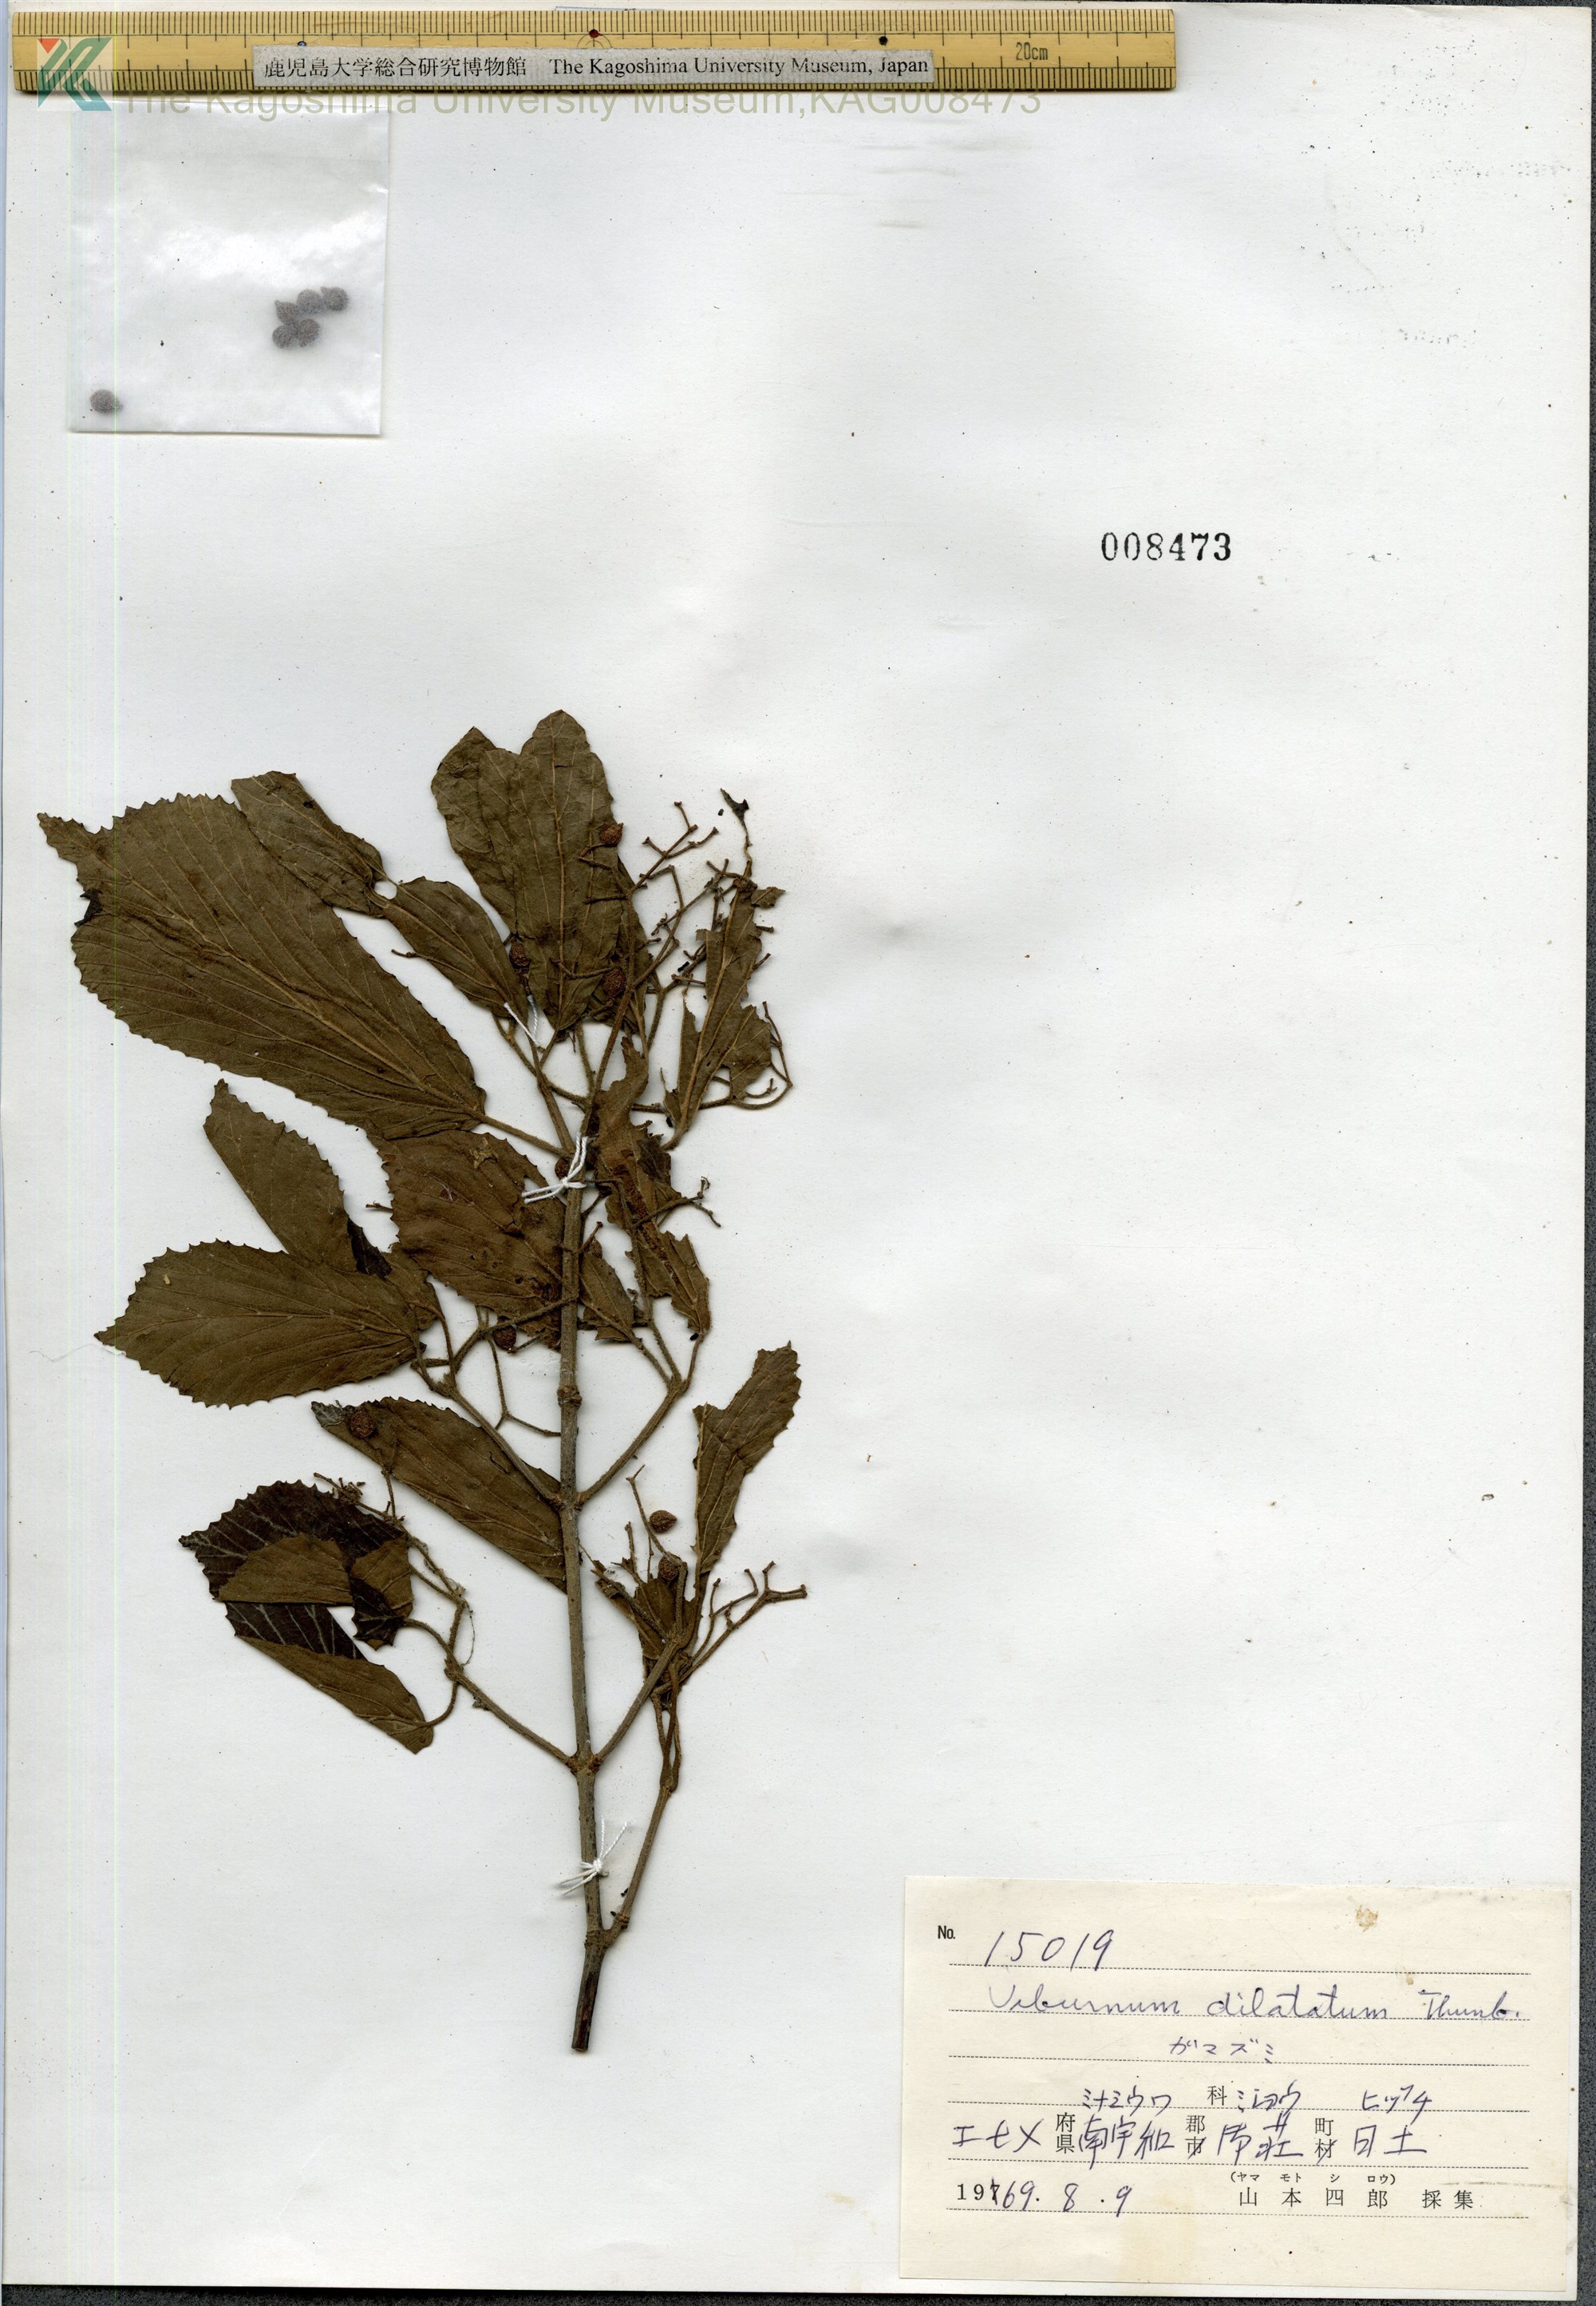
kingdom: Plantae
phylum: Tracheophyta
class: Magnoliopsida
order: Dipsacales
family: Viburnaceae
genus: Viburnum
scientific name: Viburnum dilatatum
